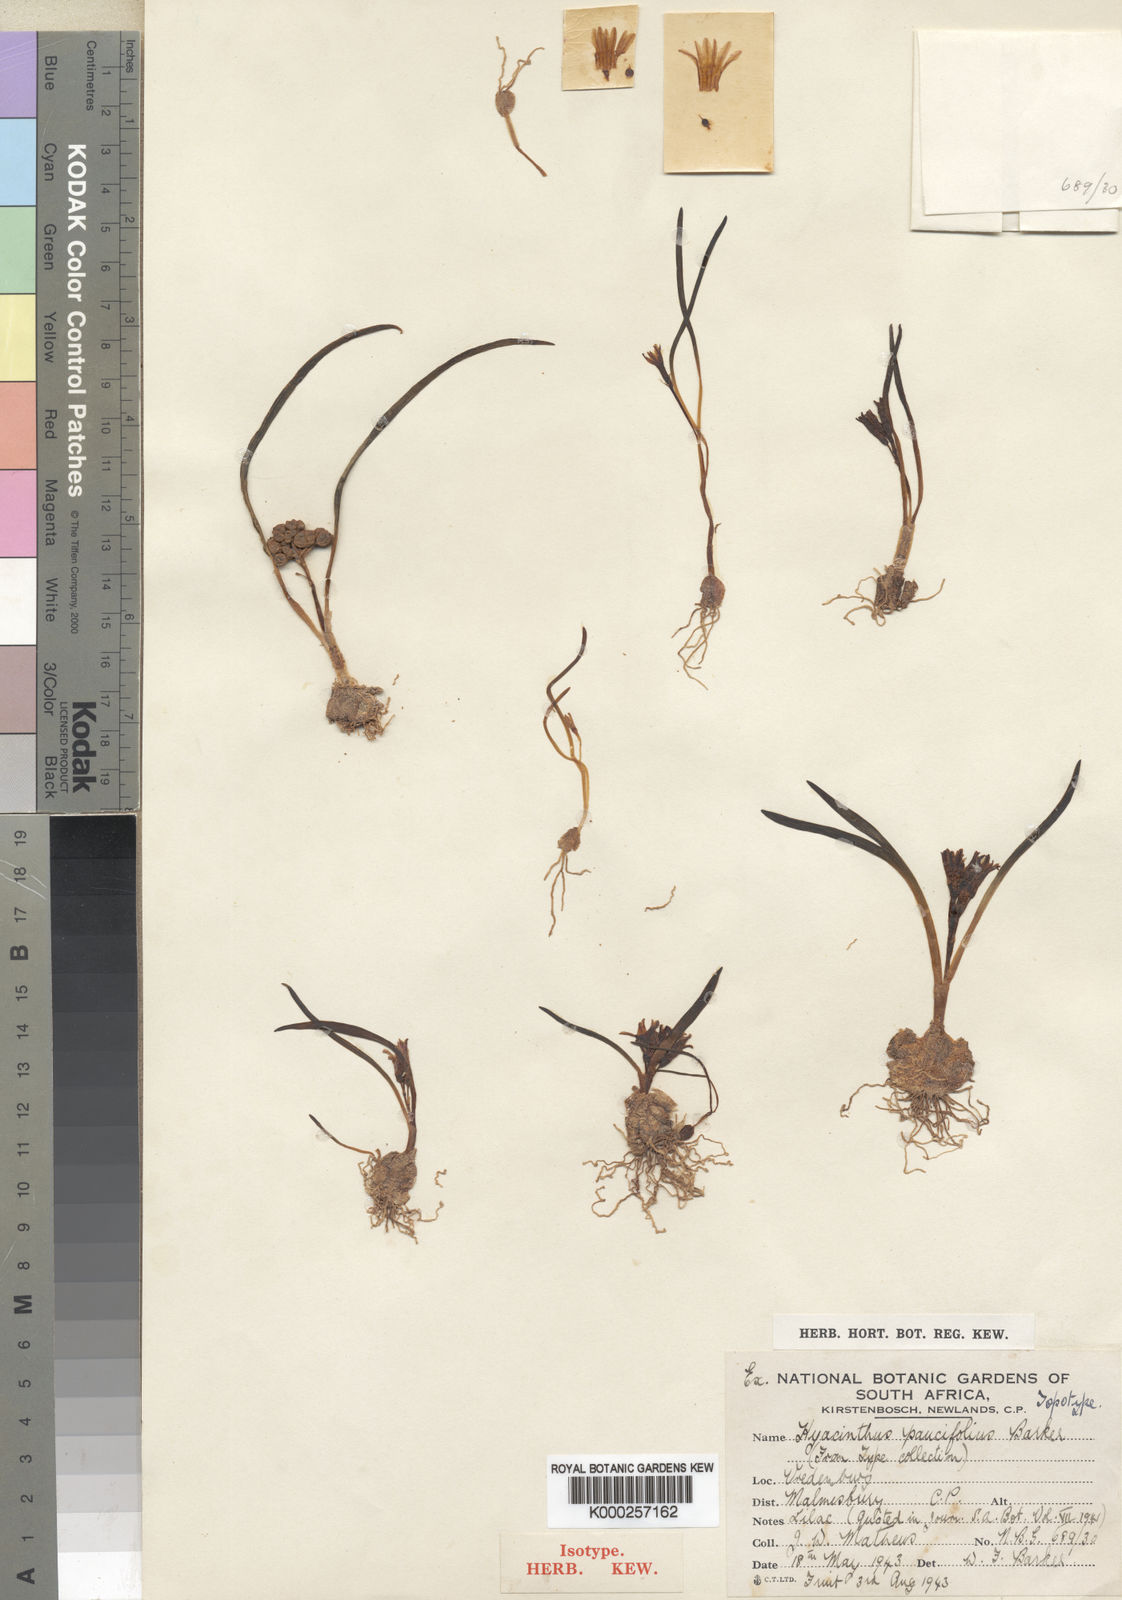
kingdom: Plantae
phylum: Tracheophyta
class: Liliopsida
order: Asparagales
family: Asparagaceae
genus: Lachenalia
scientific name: Lachenalia corymbosa
